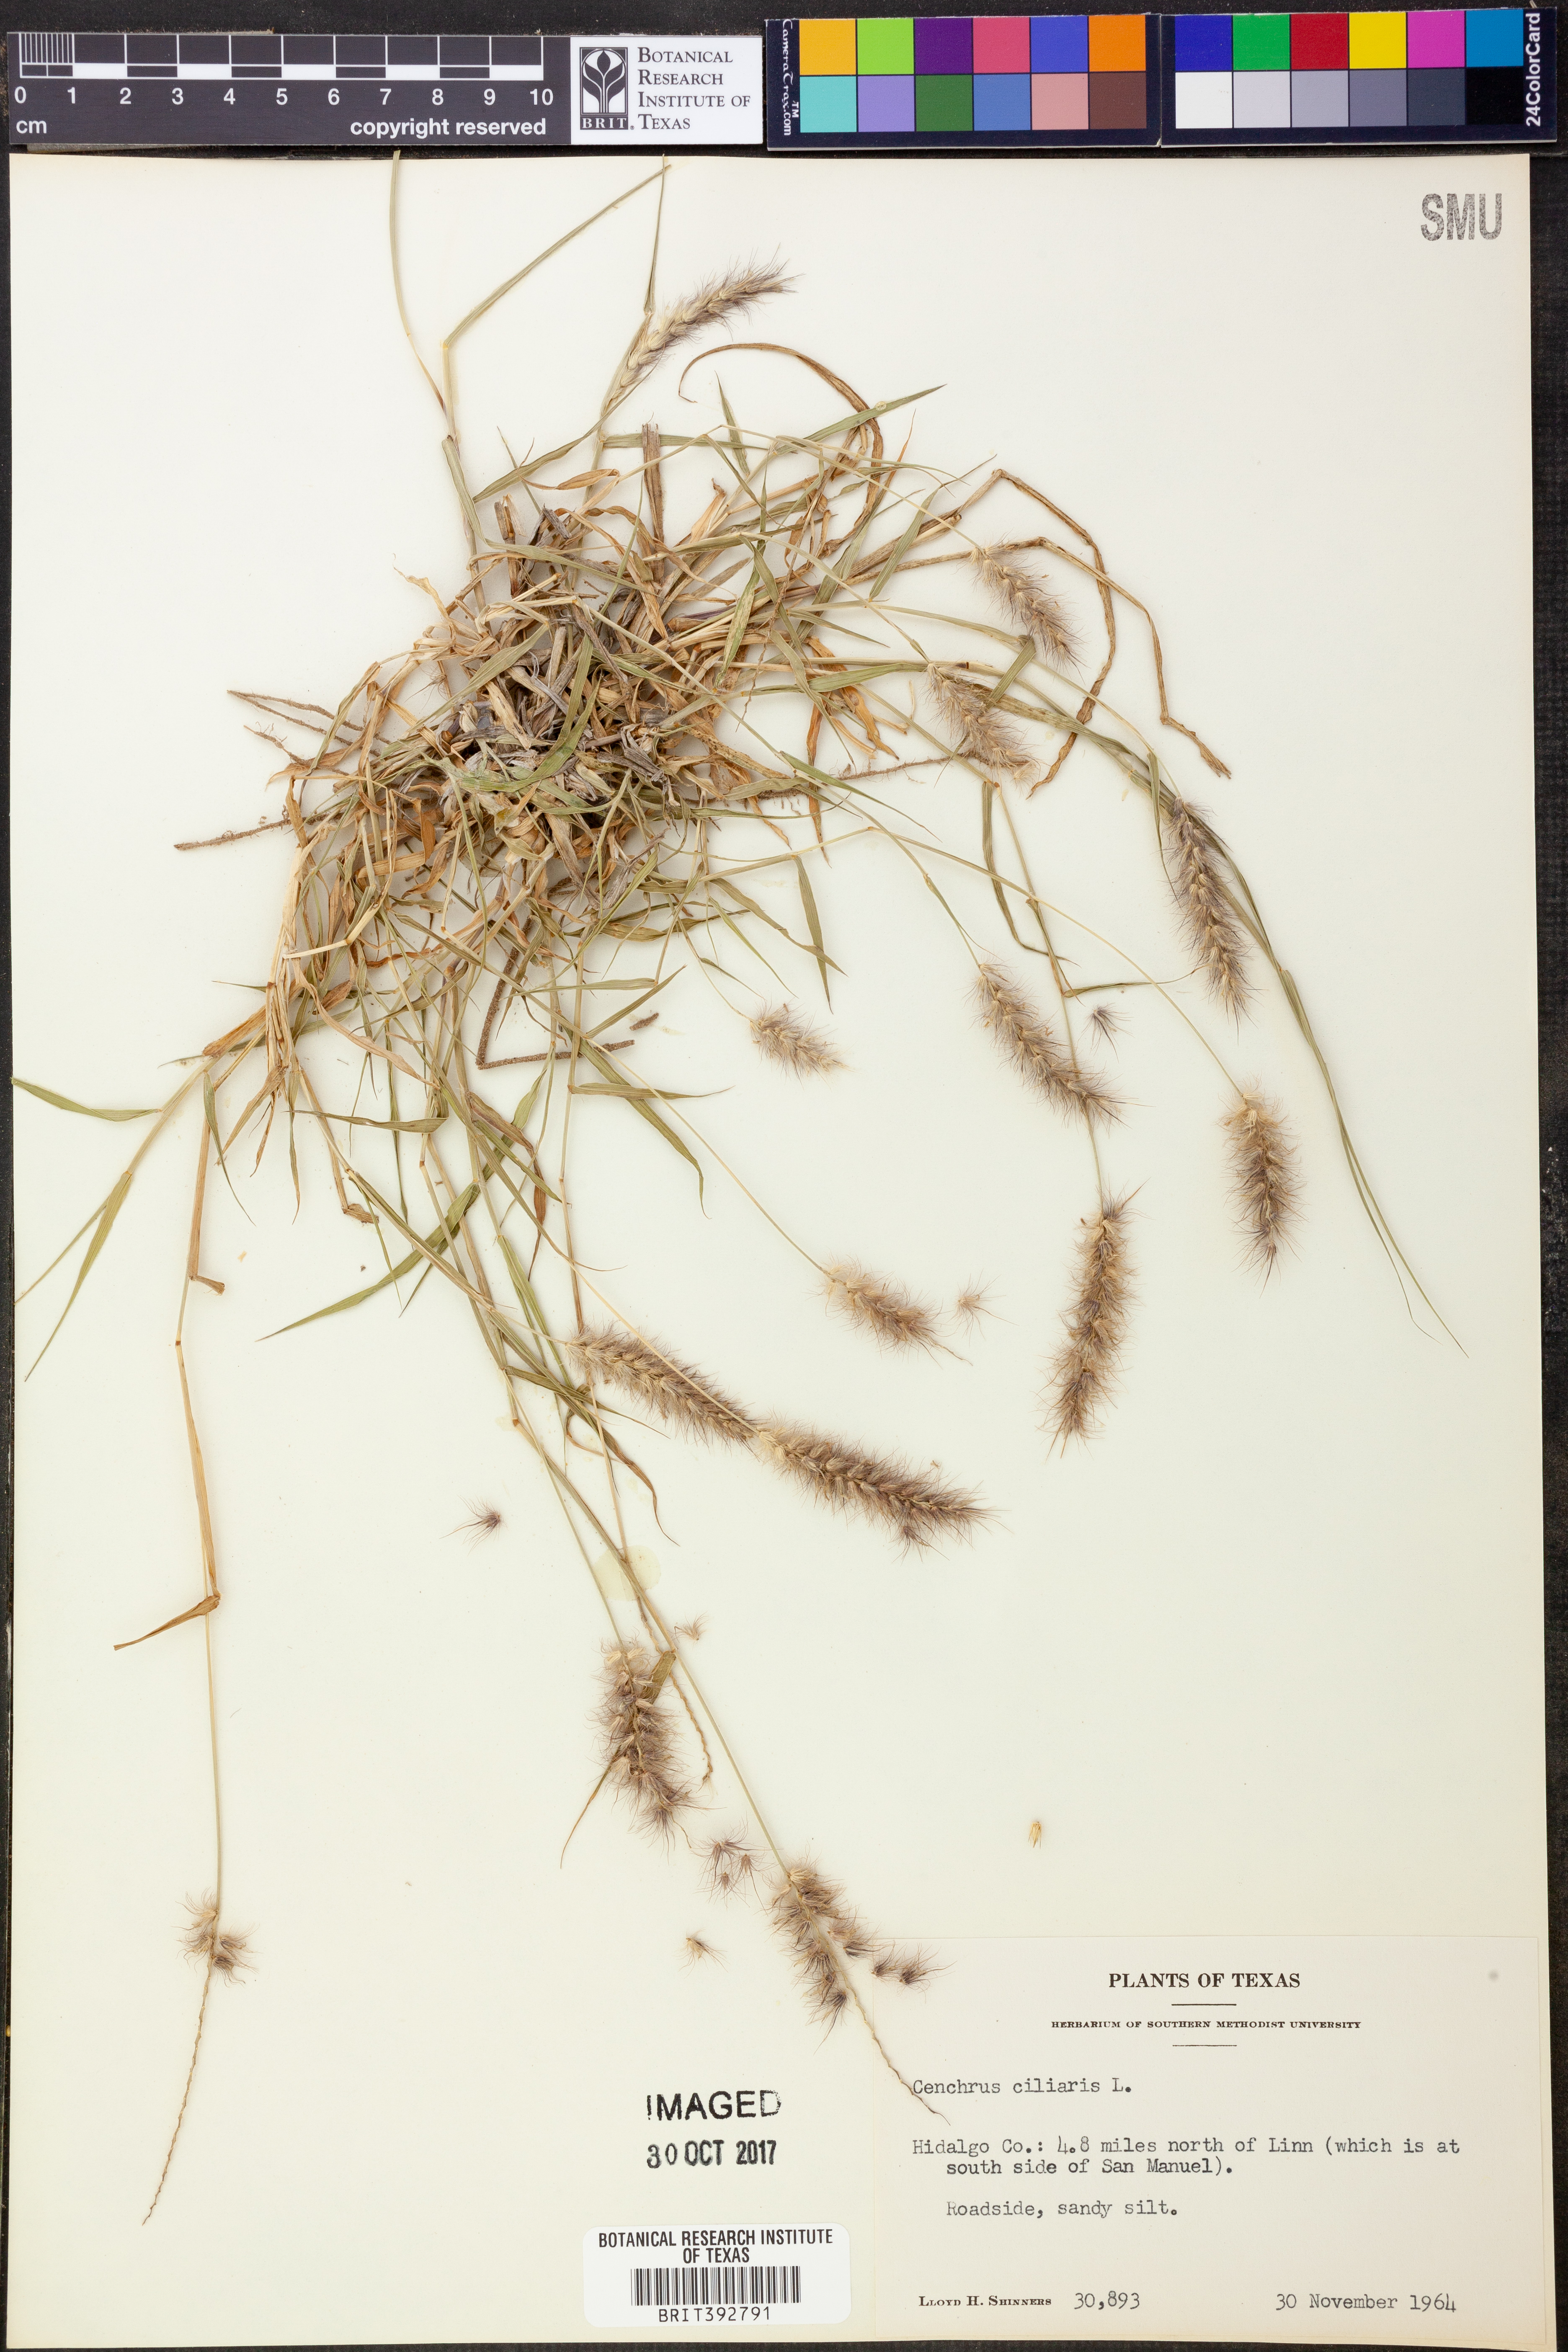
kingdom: Plantae
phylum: Tracheophyta
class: Liliopsida
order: Poales
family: Poaceae
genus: Cenchrus
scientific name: Cenchrus ciliaris
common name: Buffelgrass
